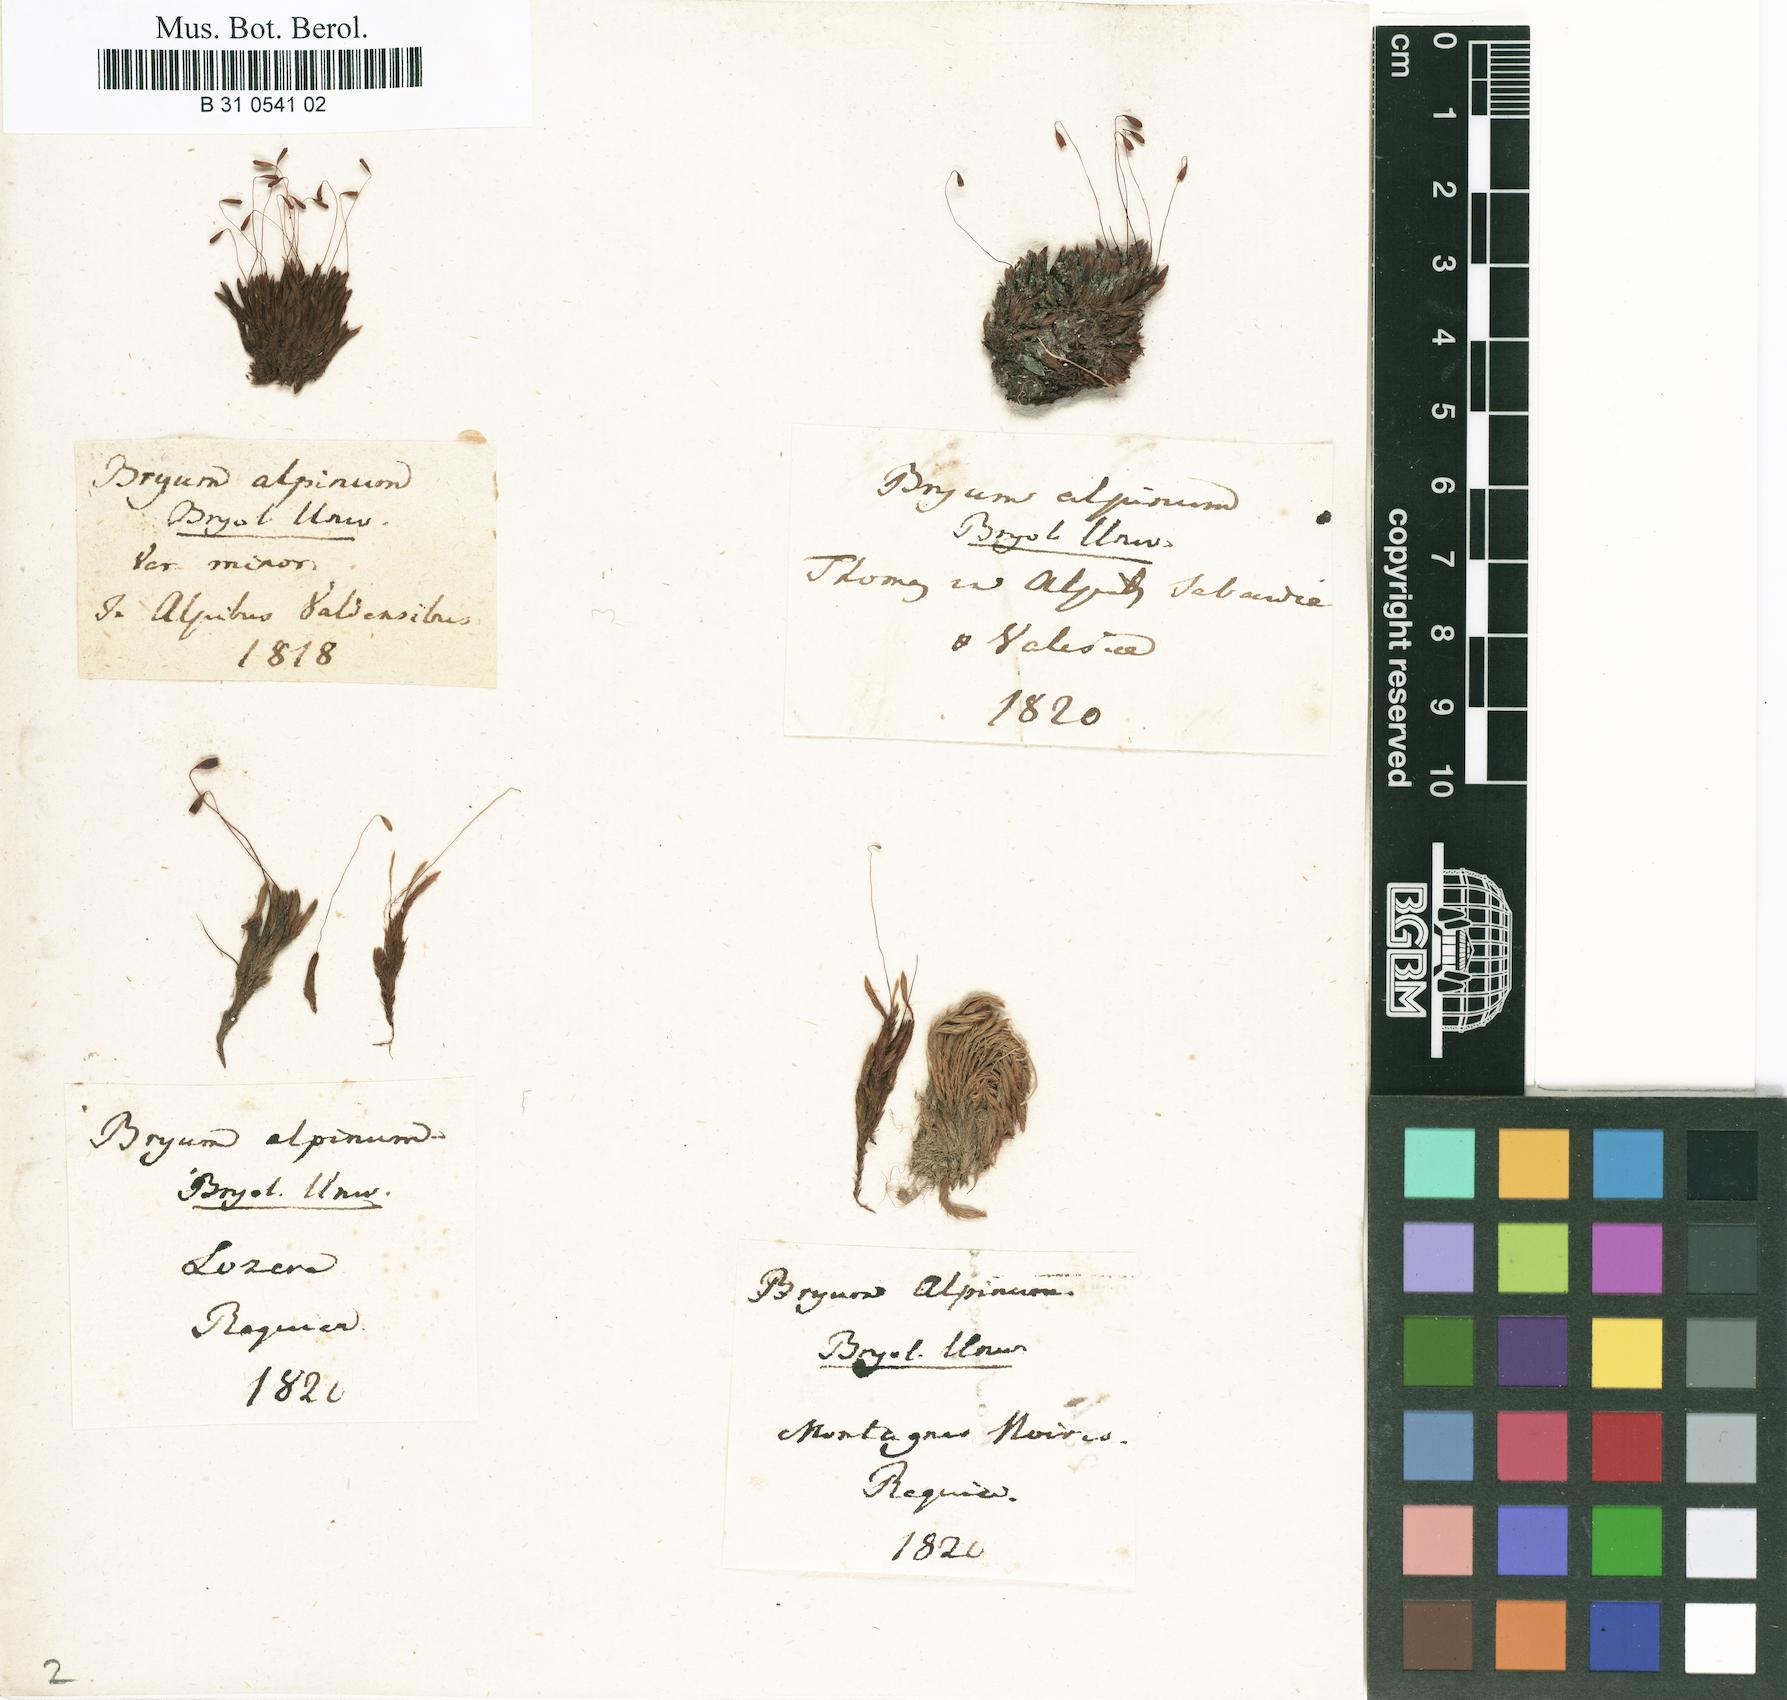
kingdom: Plantae
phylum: Bryophyta
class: Bryopsida
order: Bryales
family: Bryaceae
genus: Imbribryum
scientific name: Imbribryum alpinum
